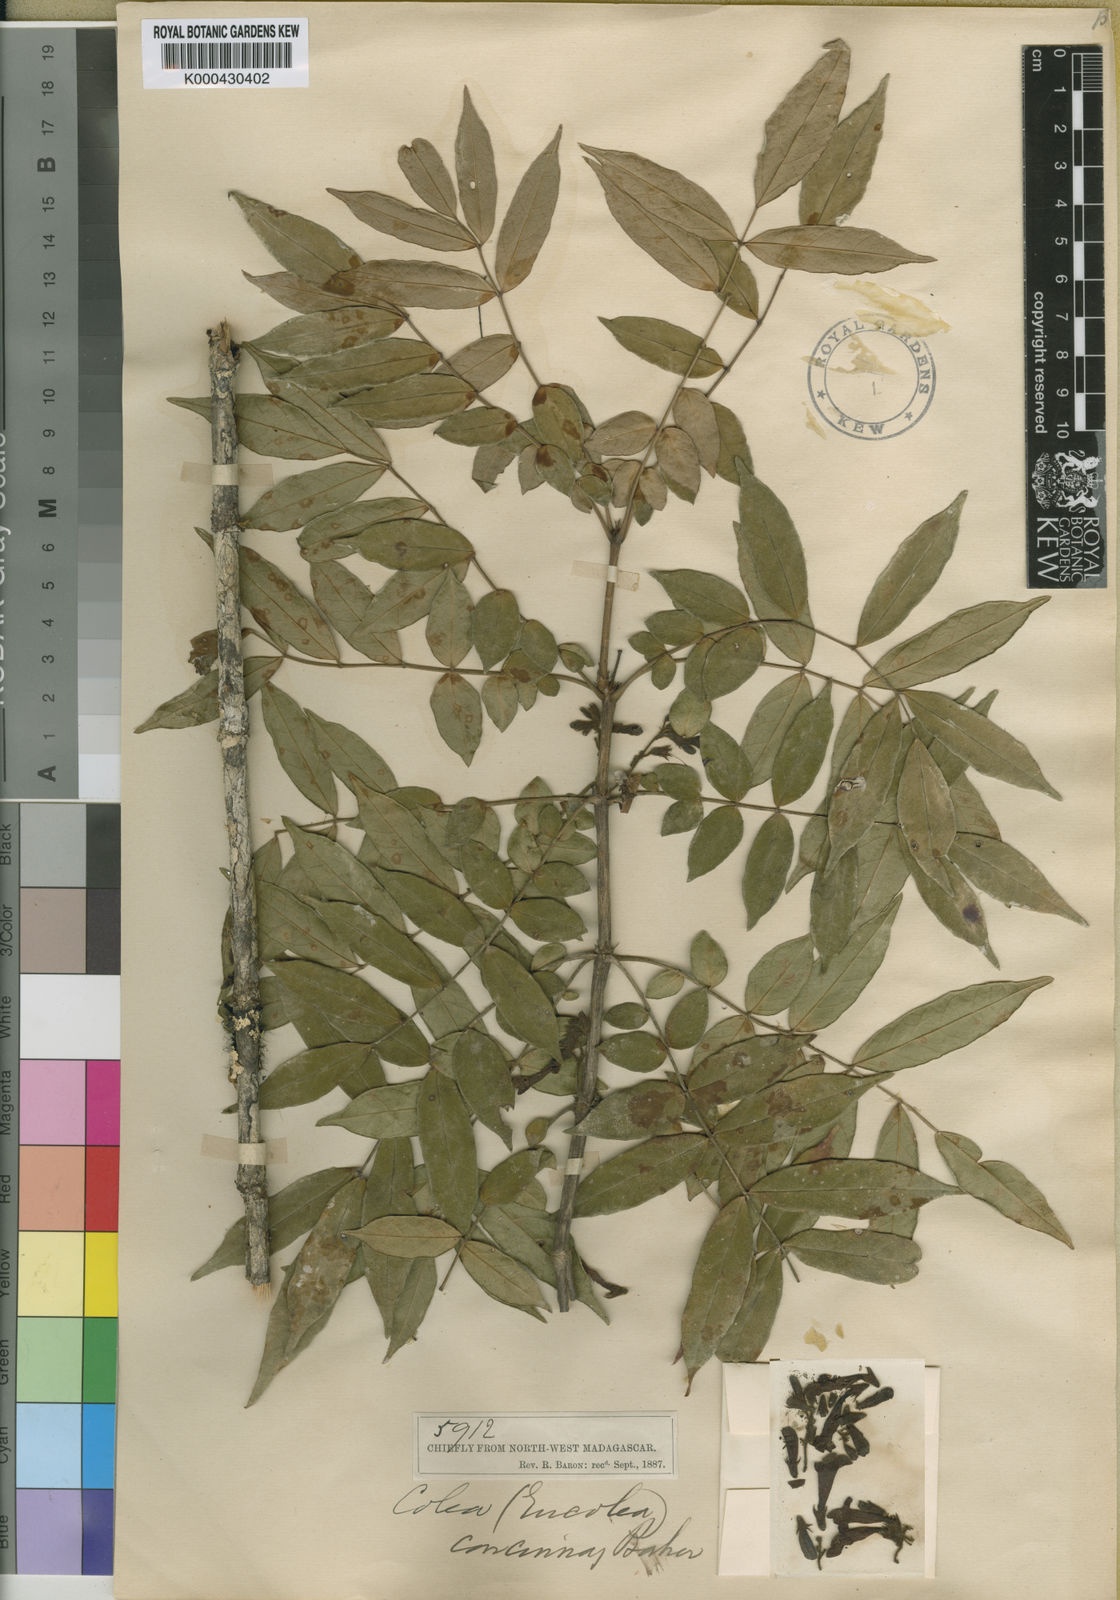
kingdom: Plantae
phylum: Tracheophyta
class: Magnoliopsida
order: Lamiales
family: Bignoniaceae
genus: Colea
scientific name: Colea concinna
